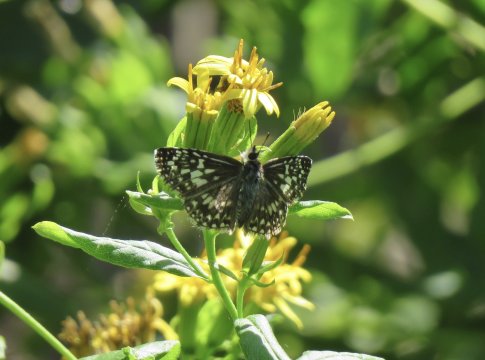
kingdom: Animalia
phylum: Arthropoda
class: Insecta
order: Lepidoptera
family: Hesperiidae
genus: Pyrgus
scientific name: Pyrgus oileus
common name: Tropical Checkered-Skipper
